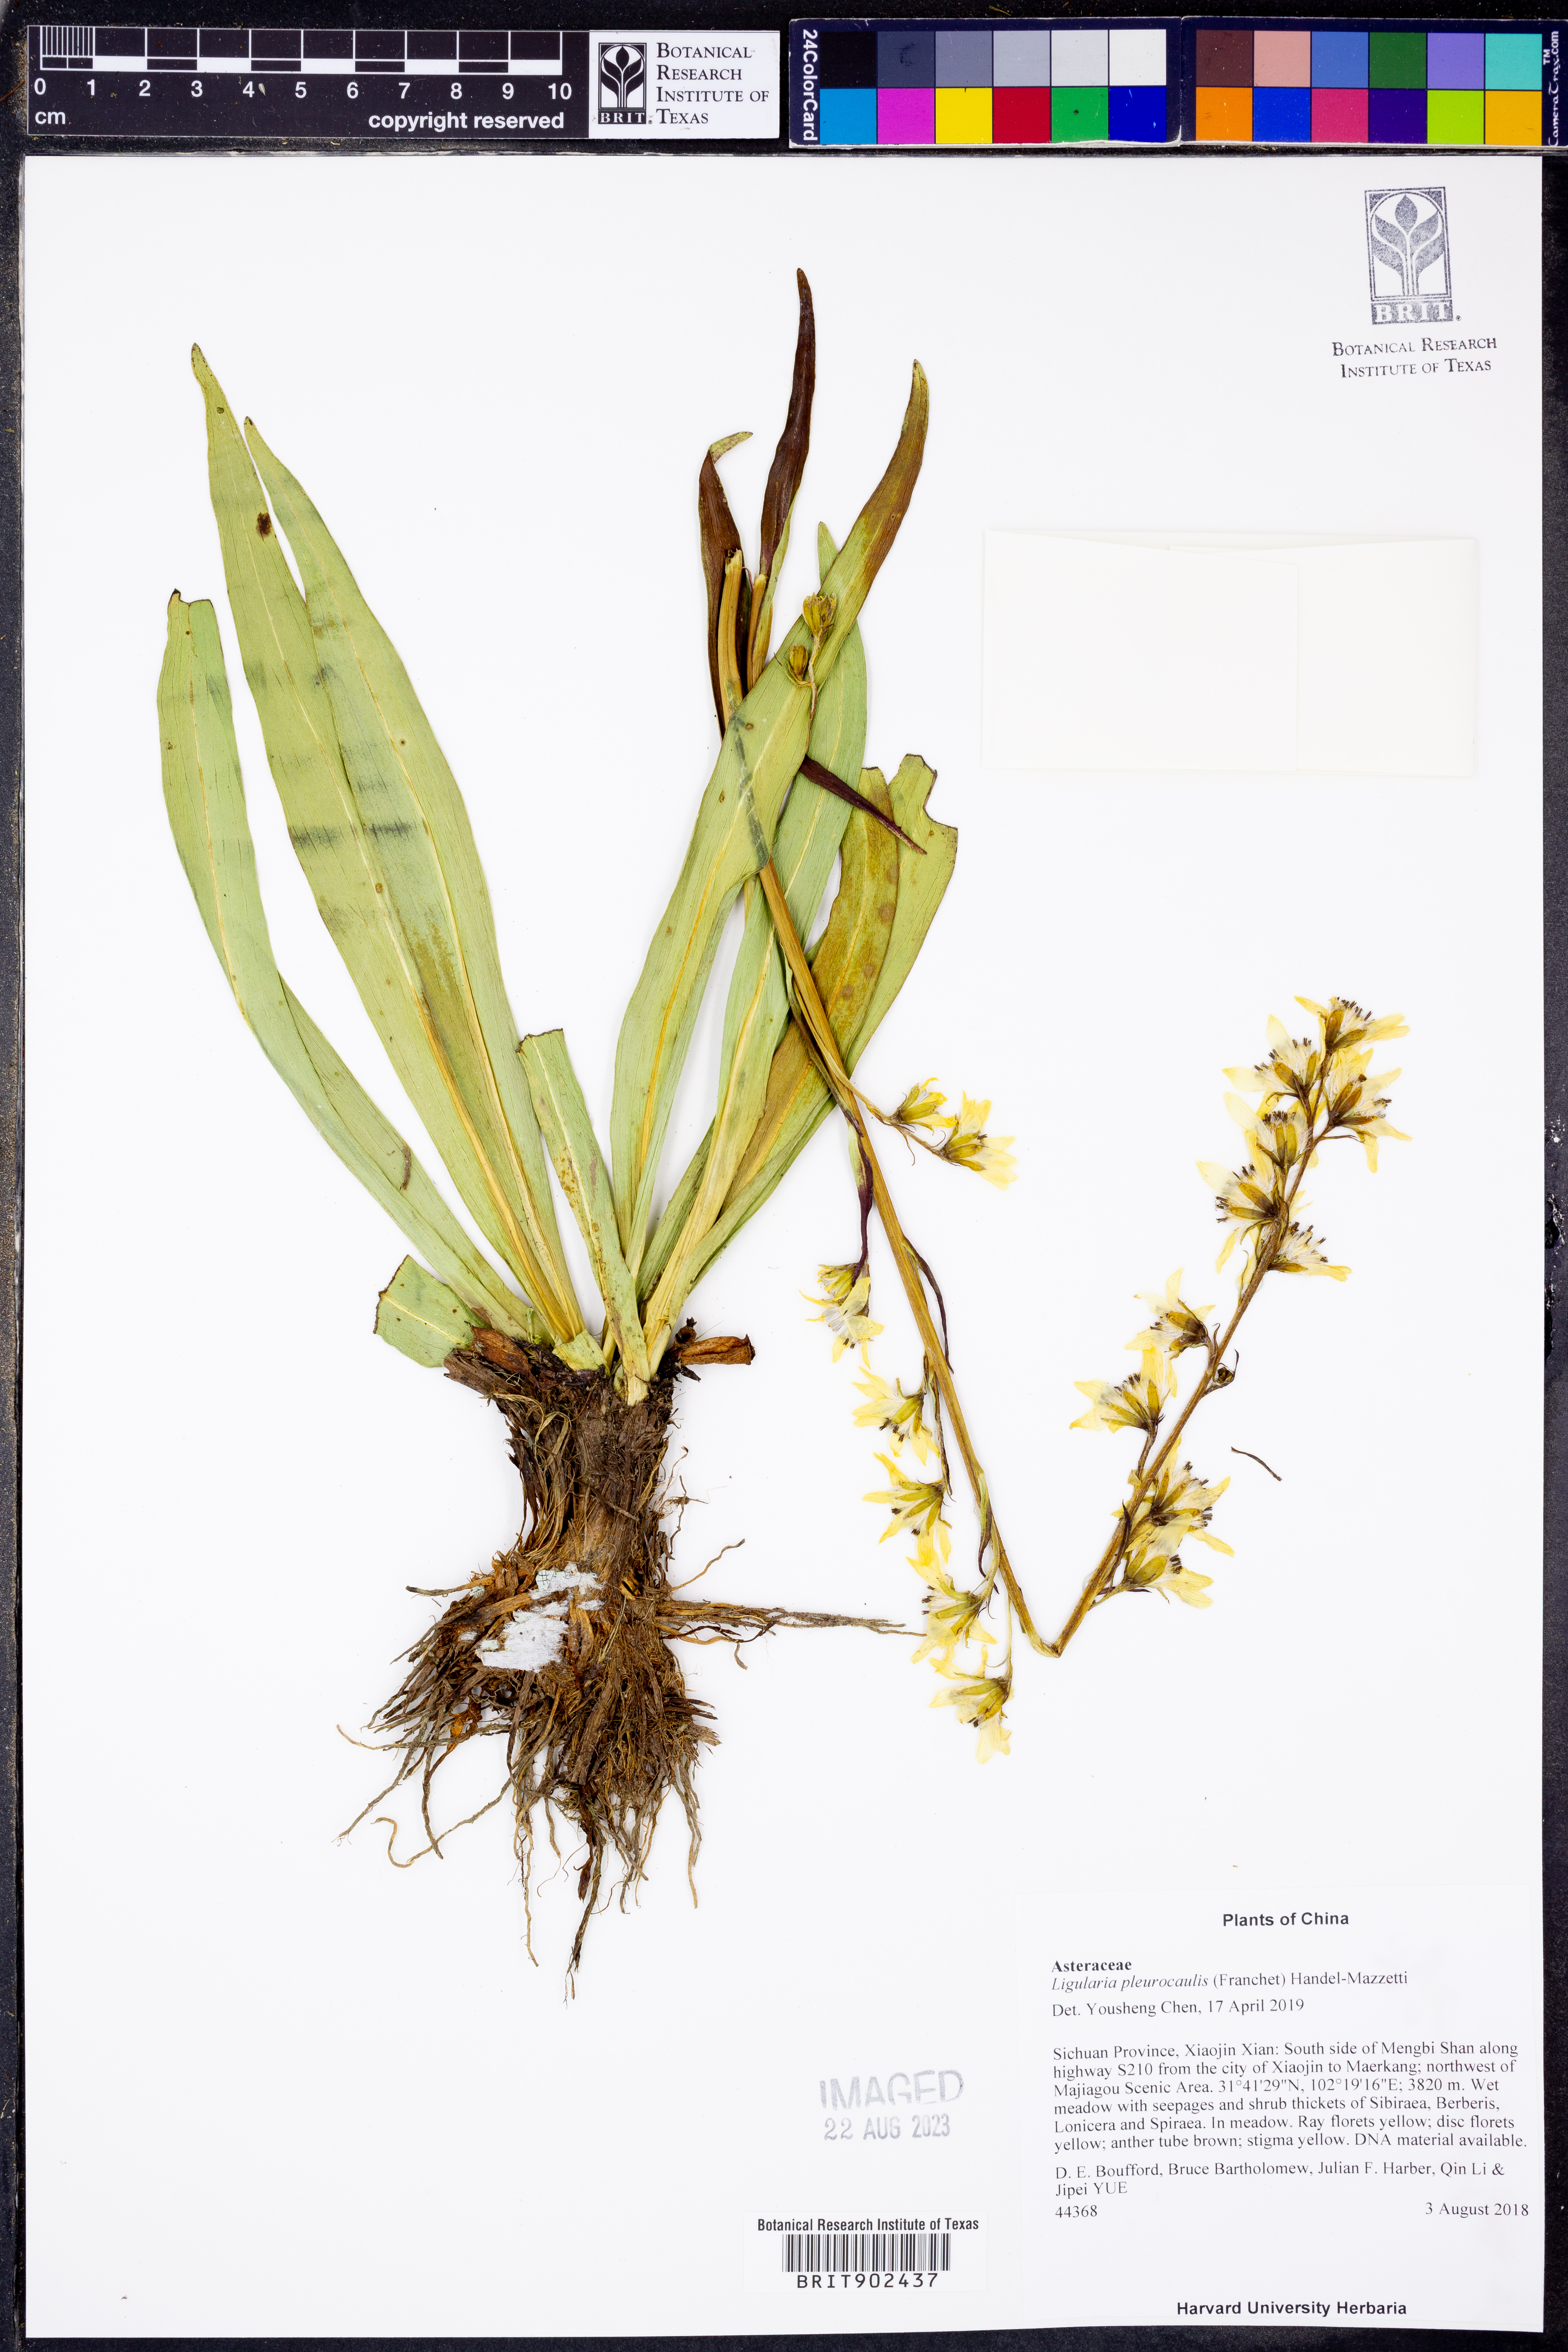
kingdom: Plantae
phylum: Tracheophyta
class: Magnoliopsida
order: Asterales
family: Asteraceae
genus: Ligularia
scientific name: Ligularia
